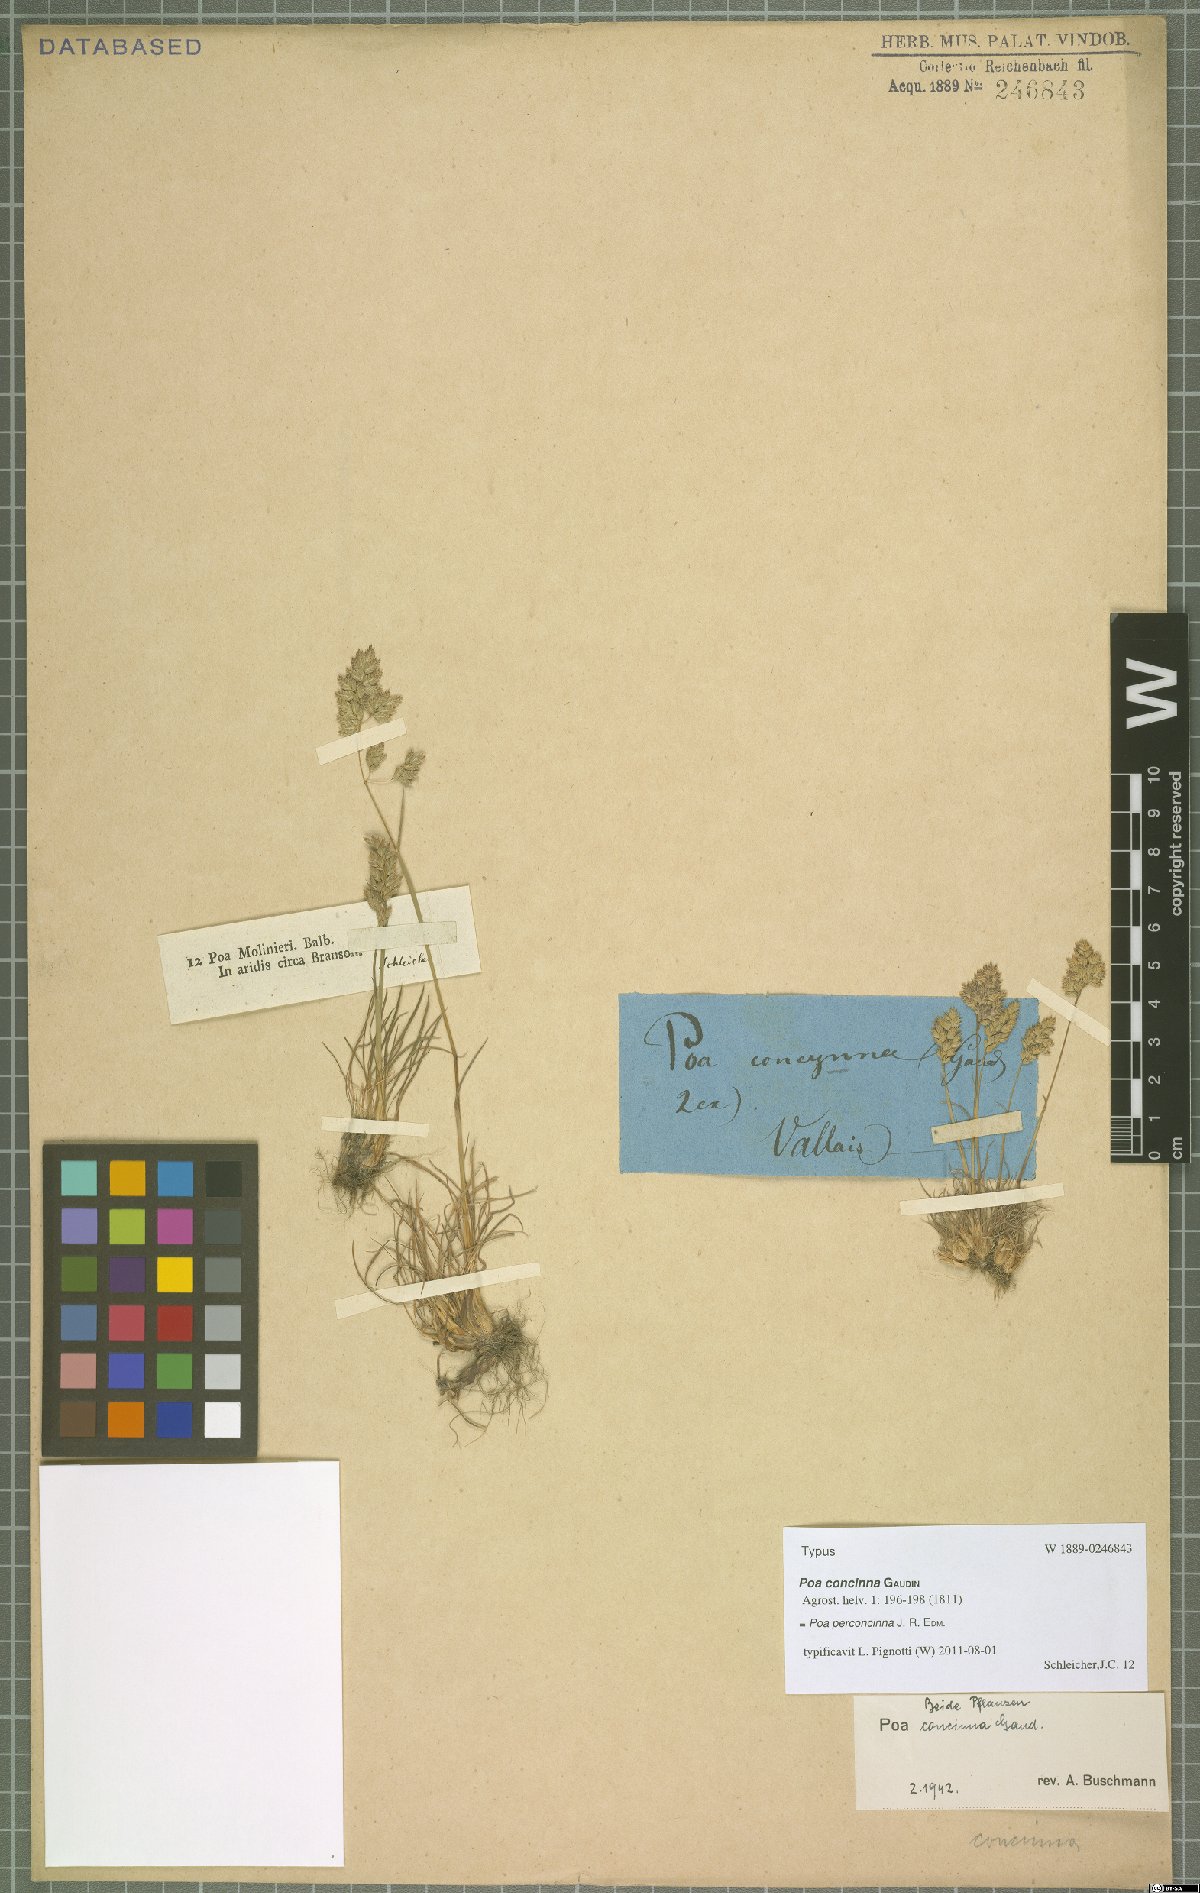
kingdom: Plantae
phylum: Tracheophyta
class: Liliopsida
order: Poales
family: Poaceae
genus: Poa
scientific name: Poa perconcinna
